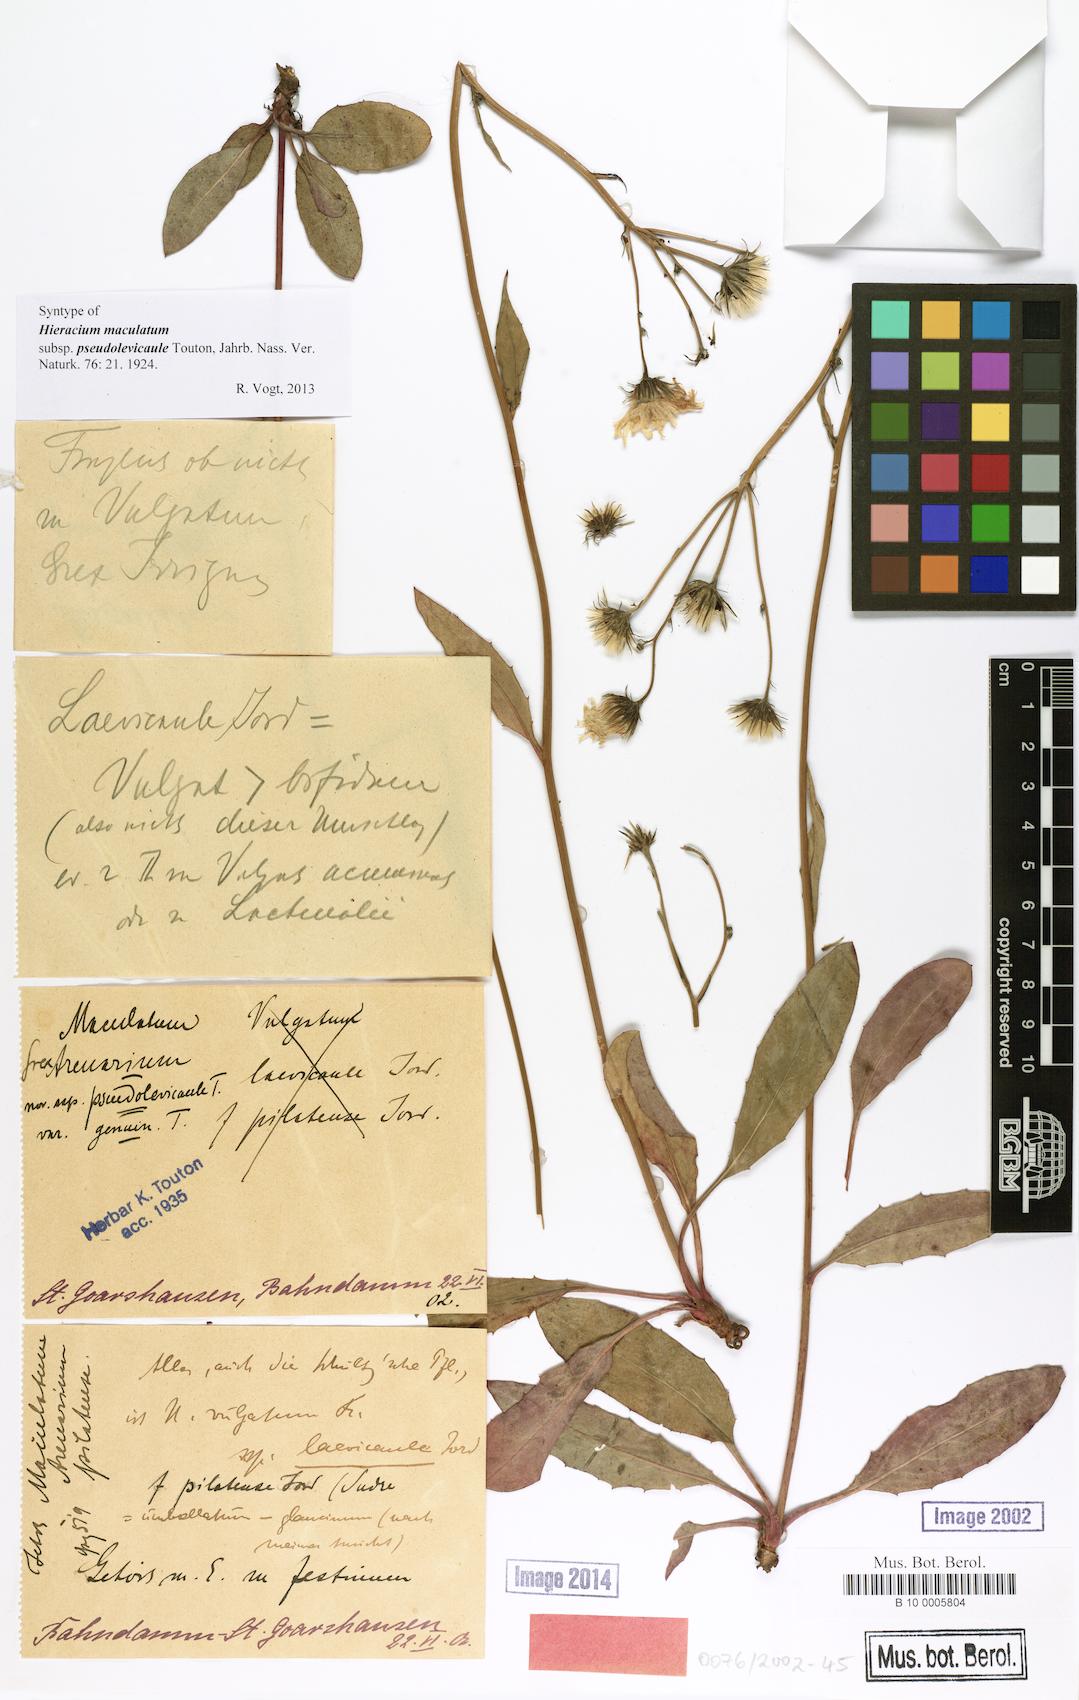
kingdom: Plantae
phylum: Tracheophyta
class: Magnoliopsida
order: Asterales
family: Asteraceae
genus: Hieracium
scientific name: Hieracium maculatum
